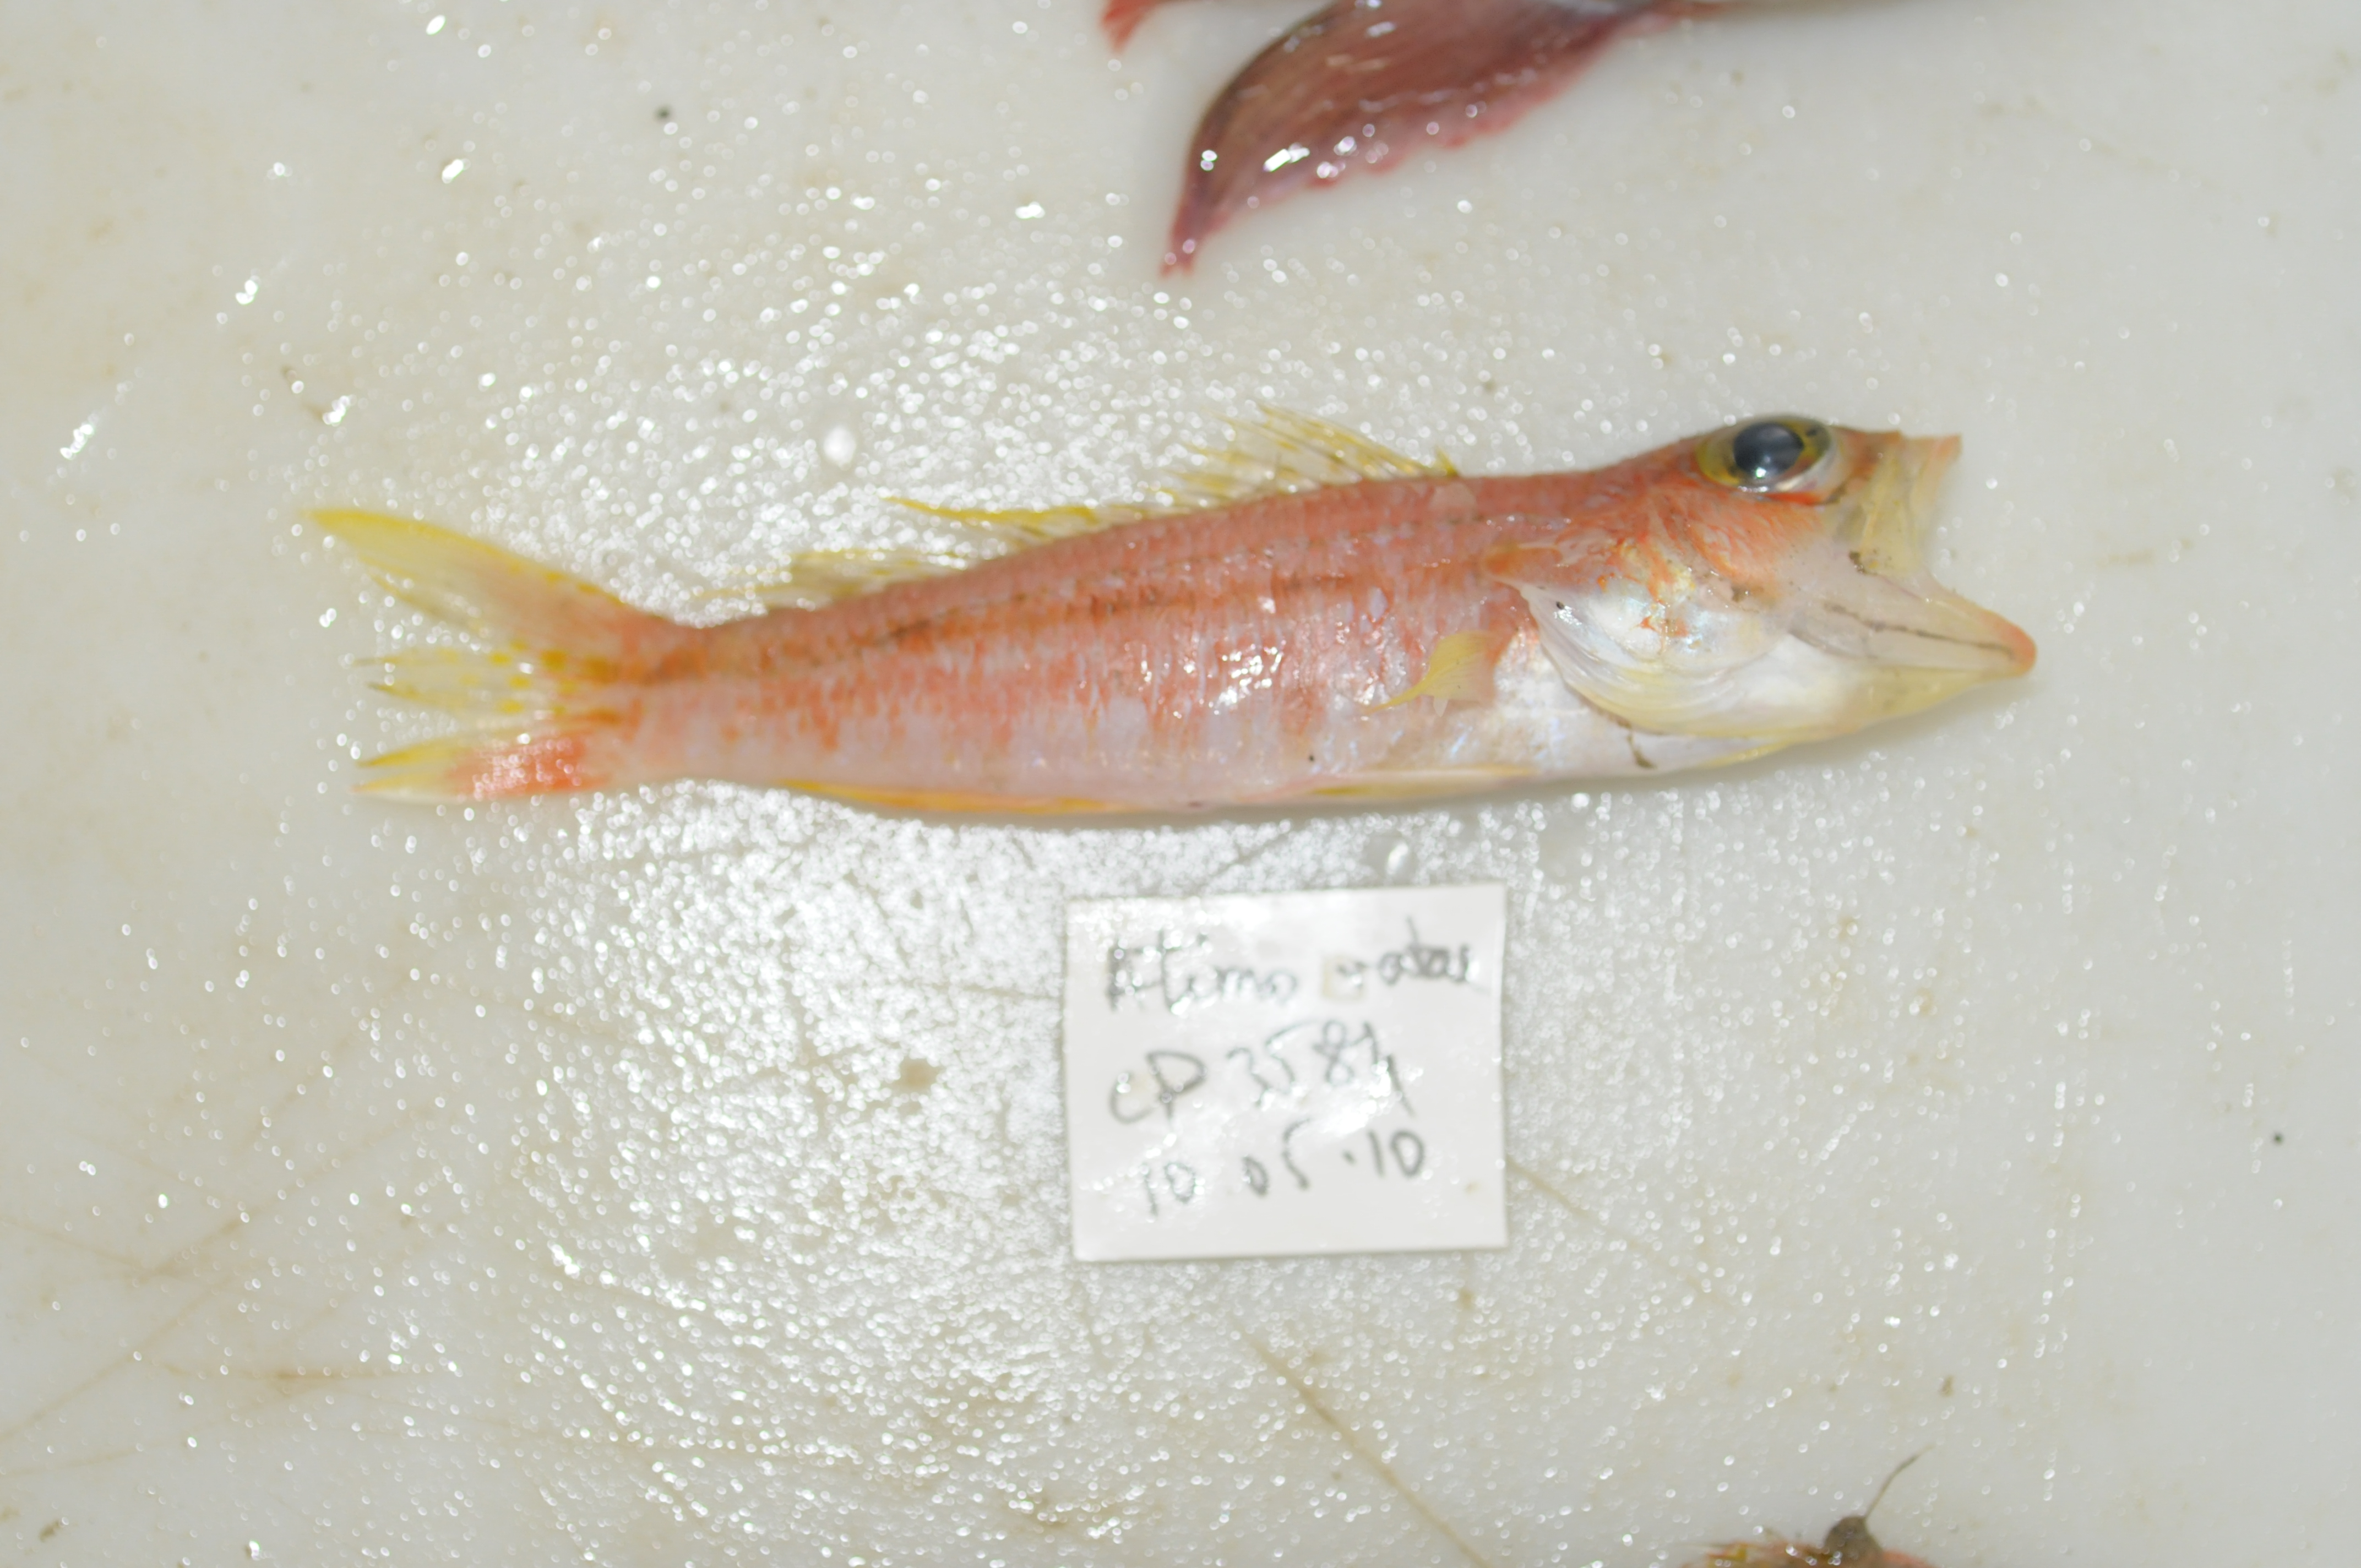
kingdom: Animalia
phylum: Chordata
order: Perciformes
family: Serranidae
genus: Chelidoperca
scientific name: Chelidoperca
